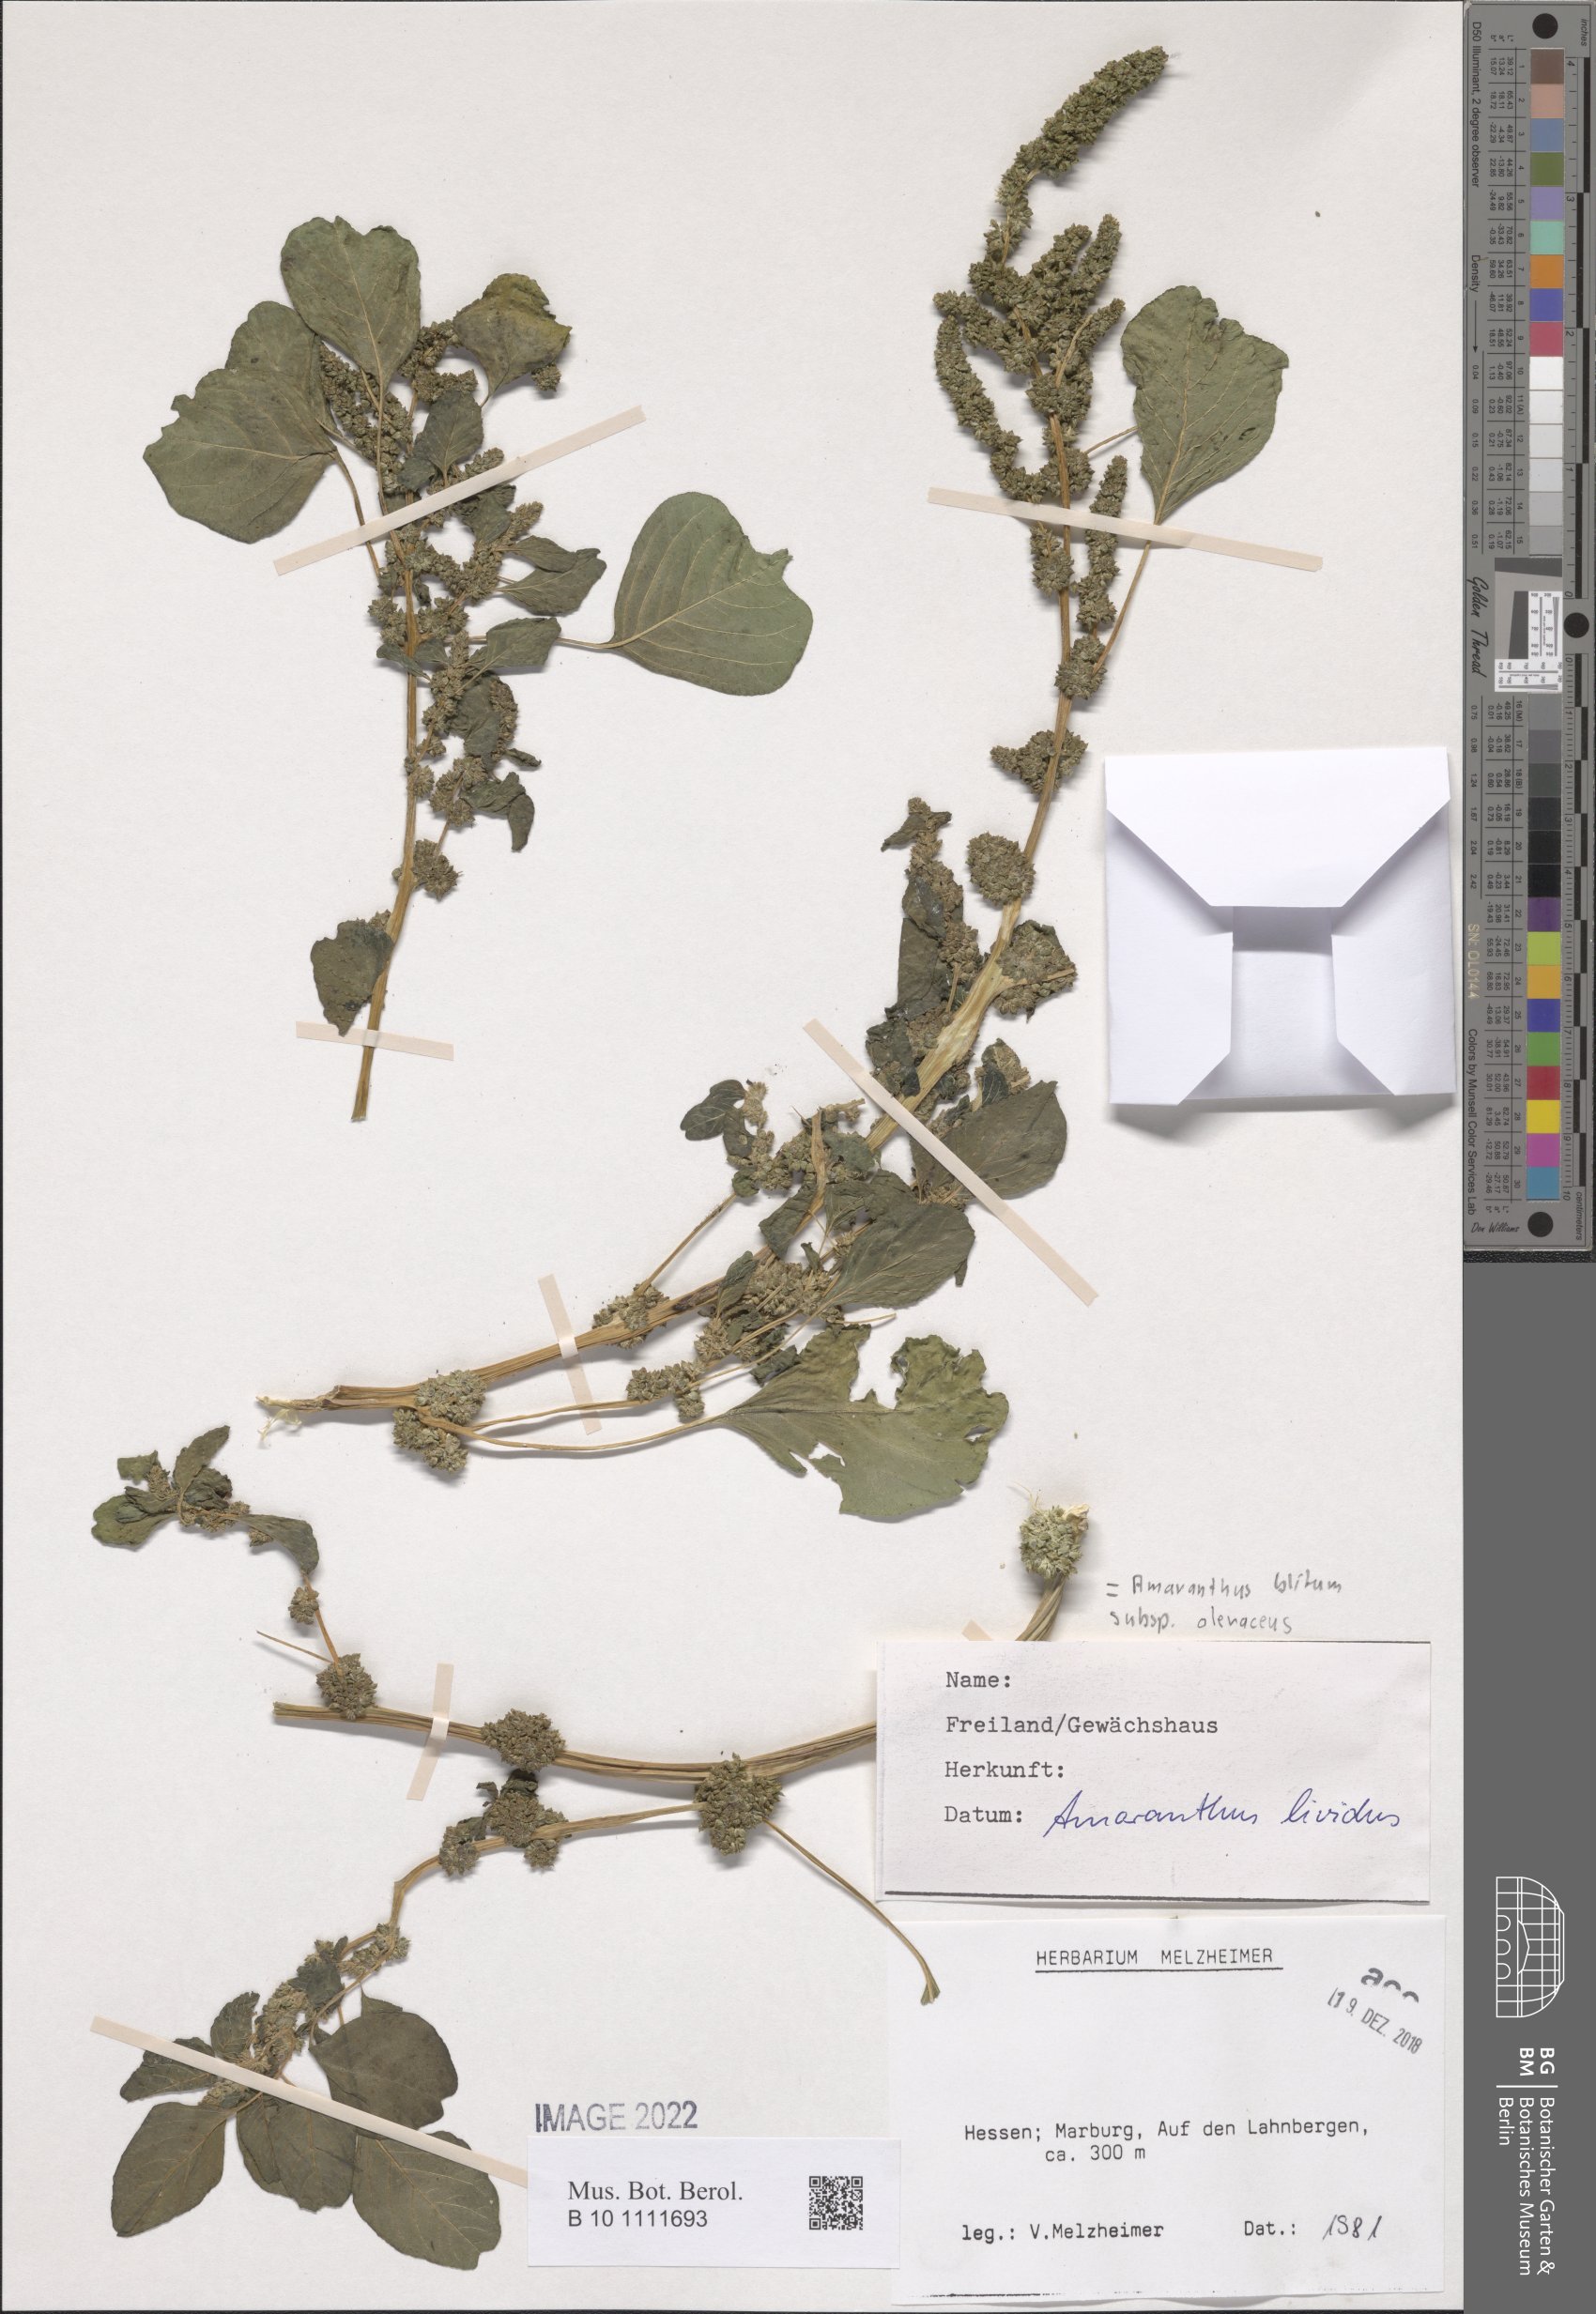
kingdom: Plantae
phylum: Tracheophyta
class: Magnoliopsida
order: Caryophyllales
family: Amaranthaceae
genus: Amaranthus
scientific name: Amaranthus blitum
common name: Purple amaranth
